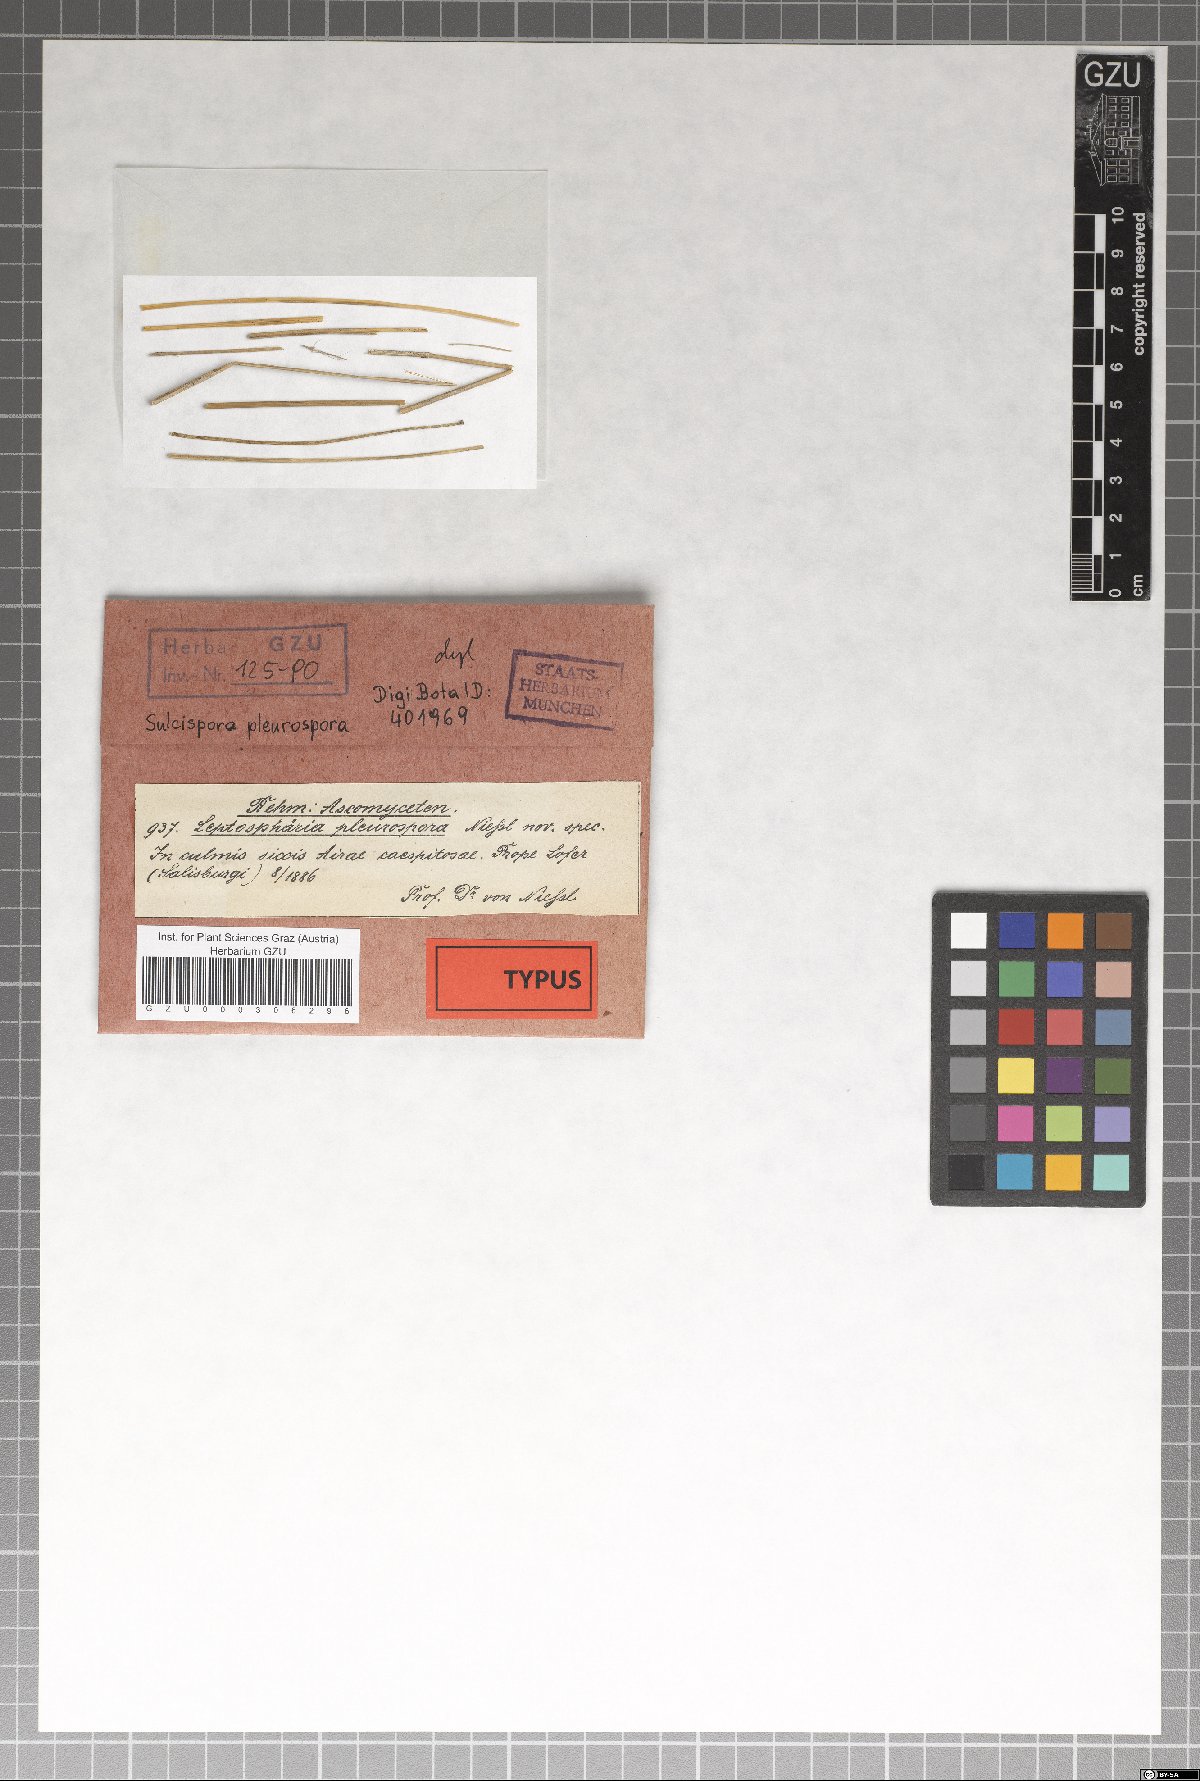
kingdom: Fungi
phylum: Ascomycota
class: Dothideomycetes
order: Pleosporales
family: Phaeosphaeriaceae
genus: Phaeosphaeria
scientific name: Phaeosphaeria pleurospora
